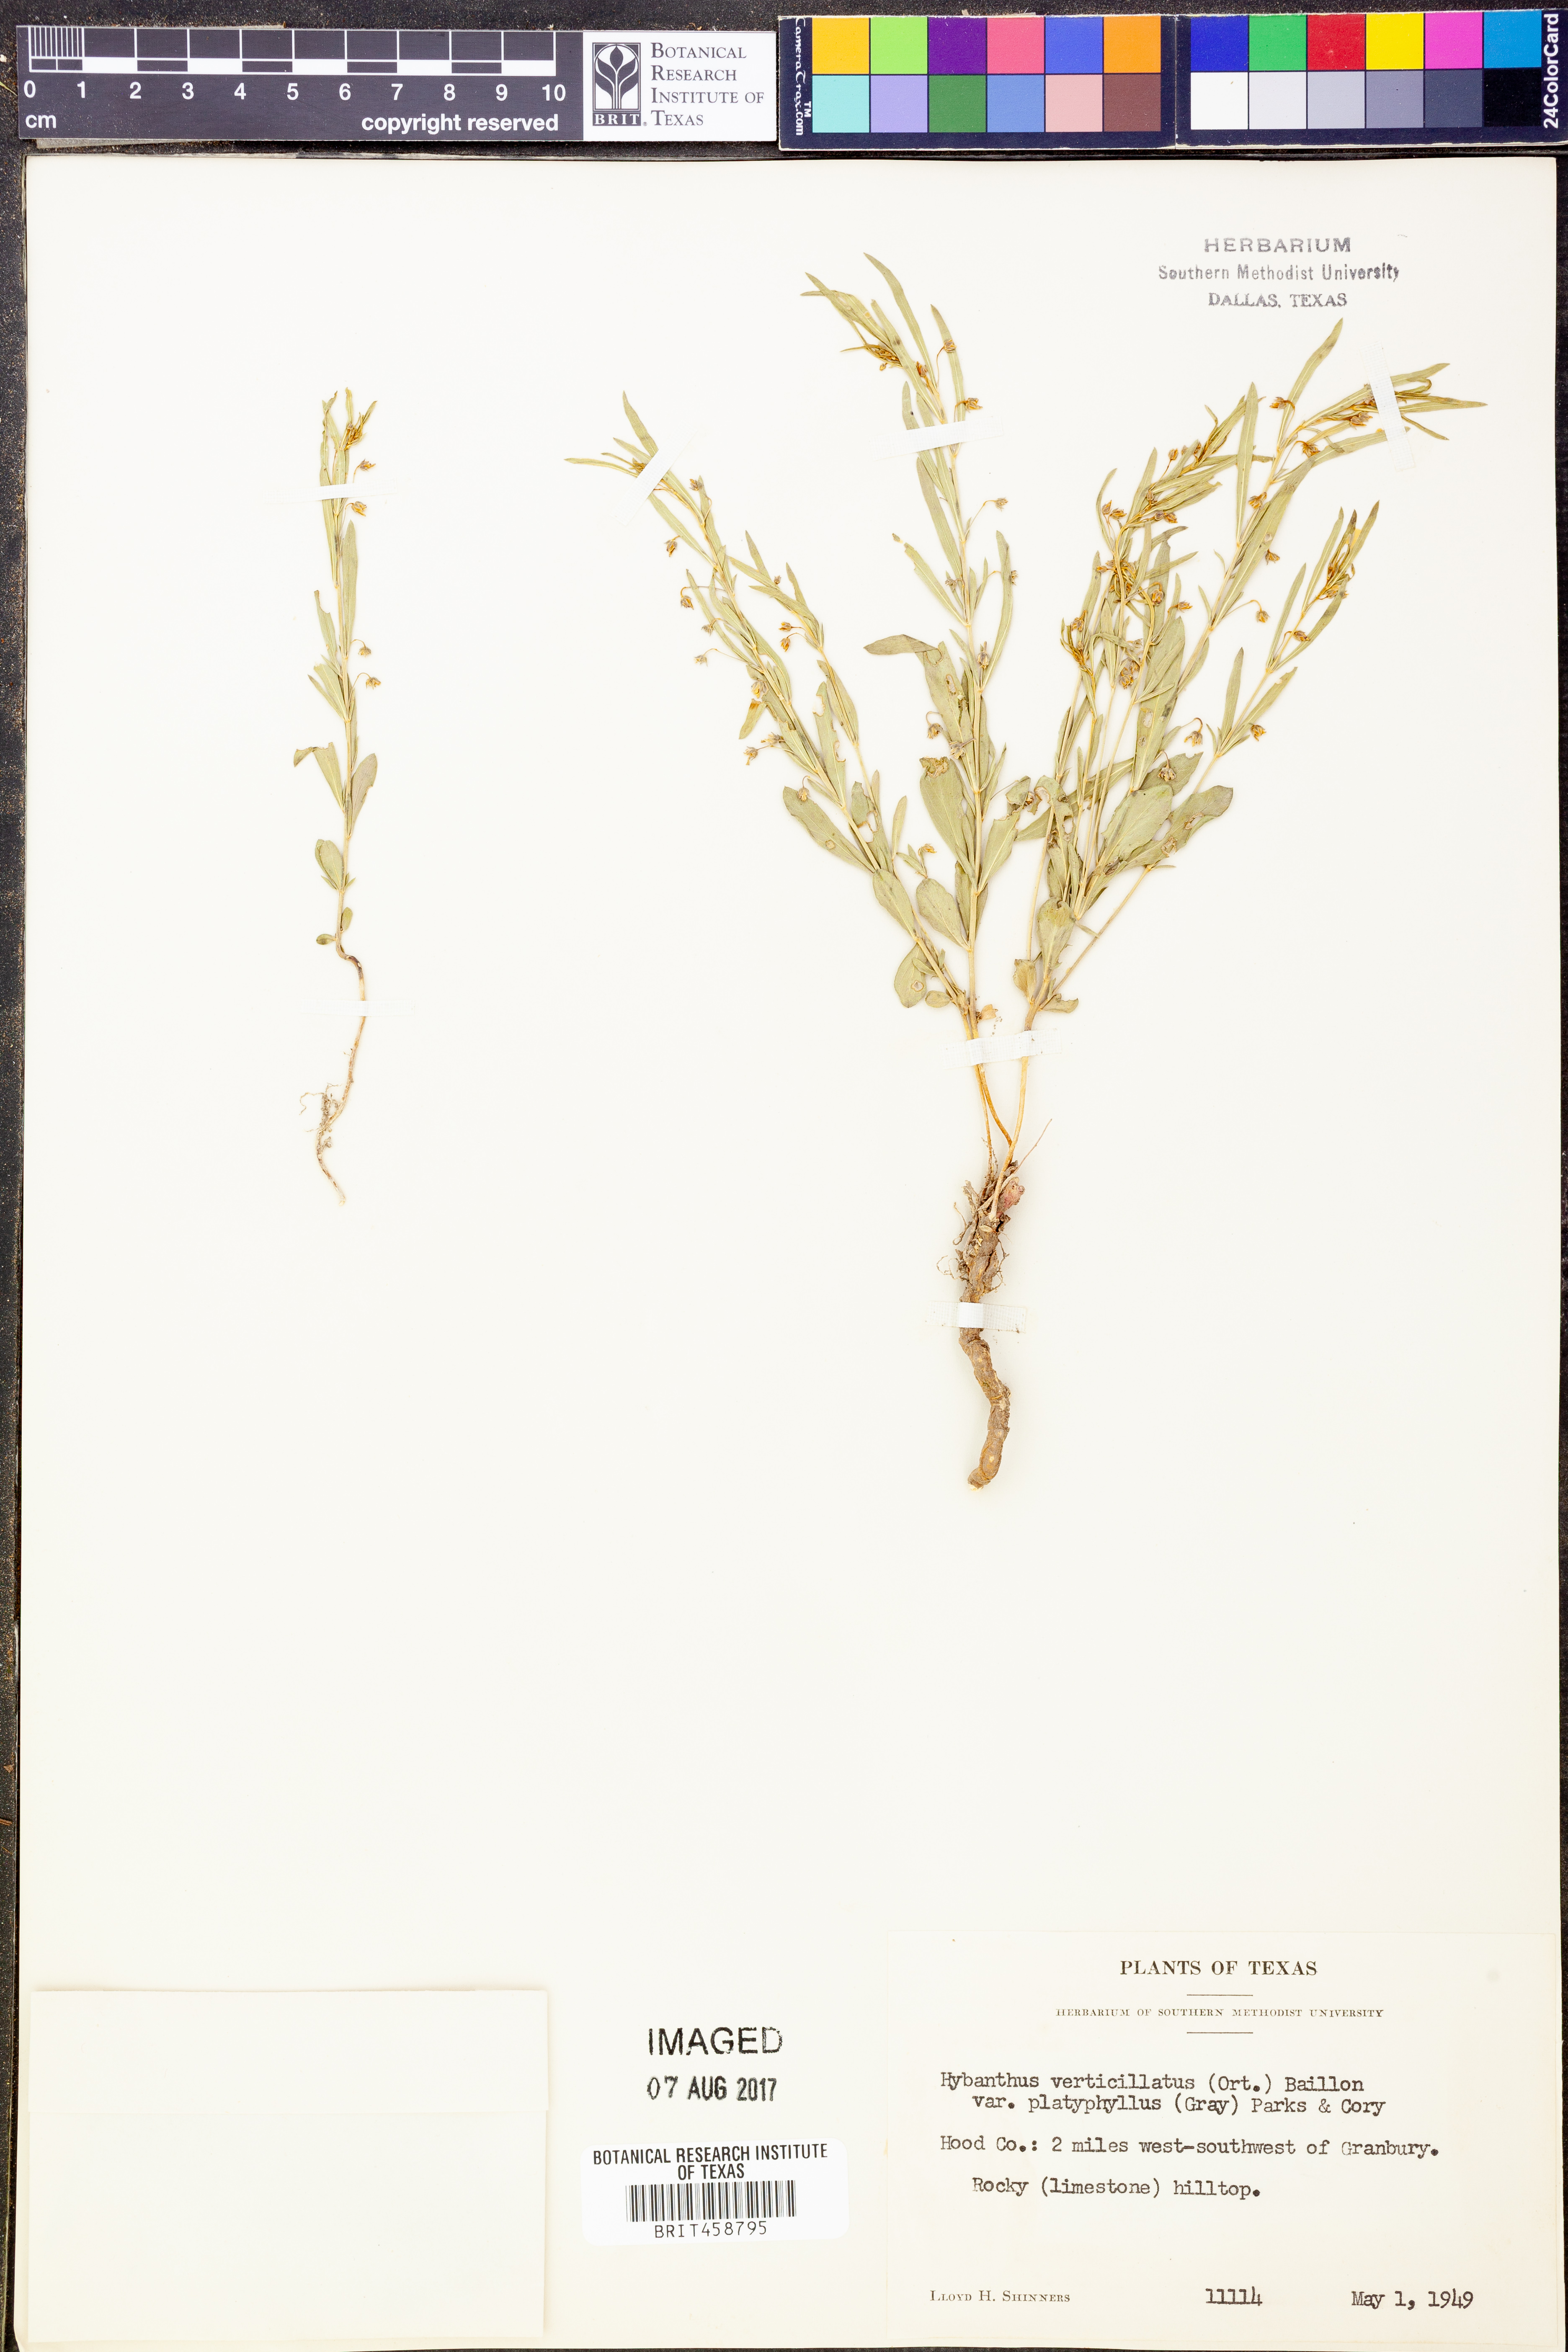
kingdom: Plantae
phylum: Tracheophyta
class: Magnoliopsida
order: Malpighiales
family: Violaceae
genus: Pombalia
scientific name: Pombalia verticillata
